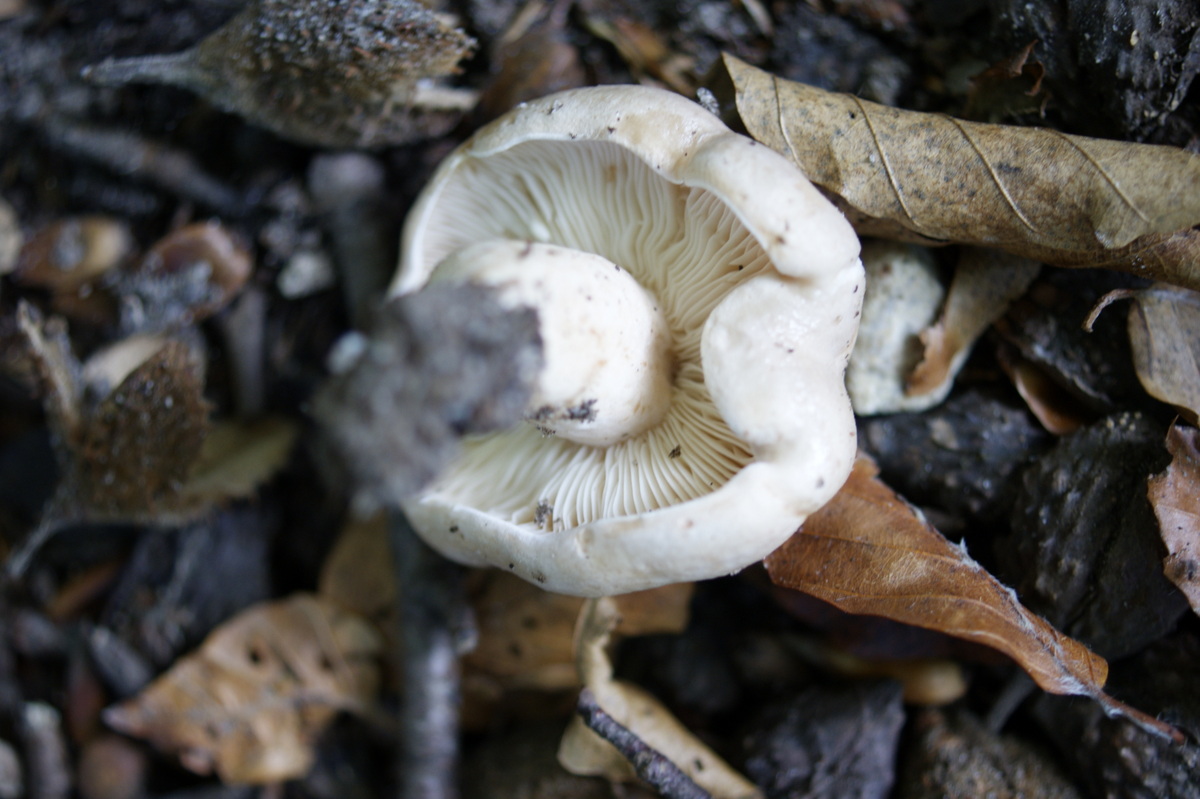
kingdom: Fungi
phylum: Basidiomycota
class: Agaricomycetes
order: Russulales
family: Russulaceae
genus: Lactarius
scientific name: Lactarius pallidus
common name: bleg mælkehat
